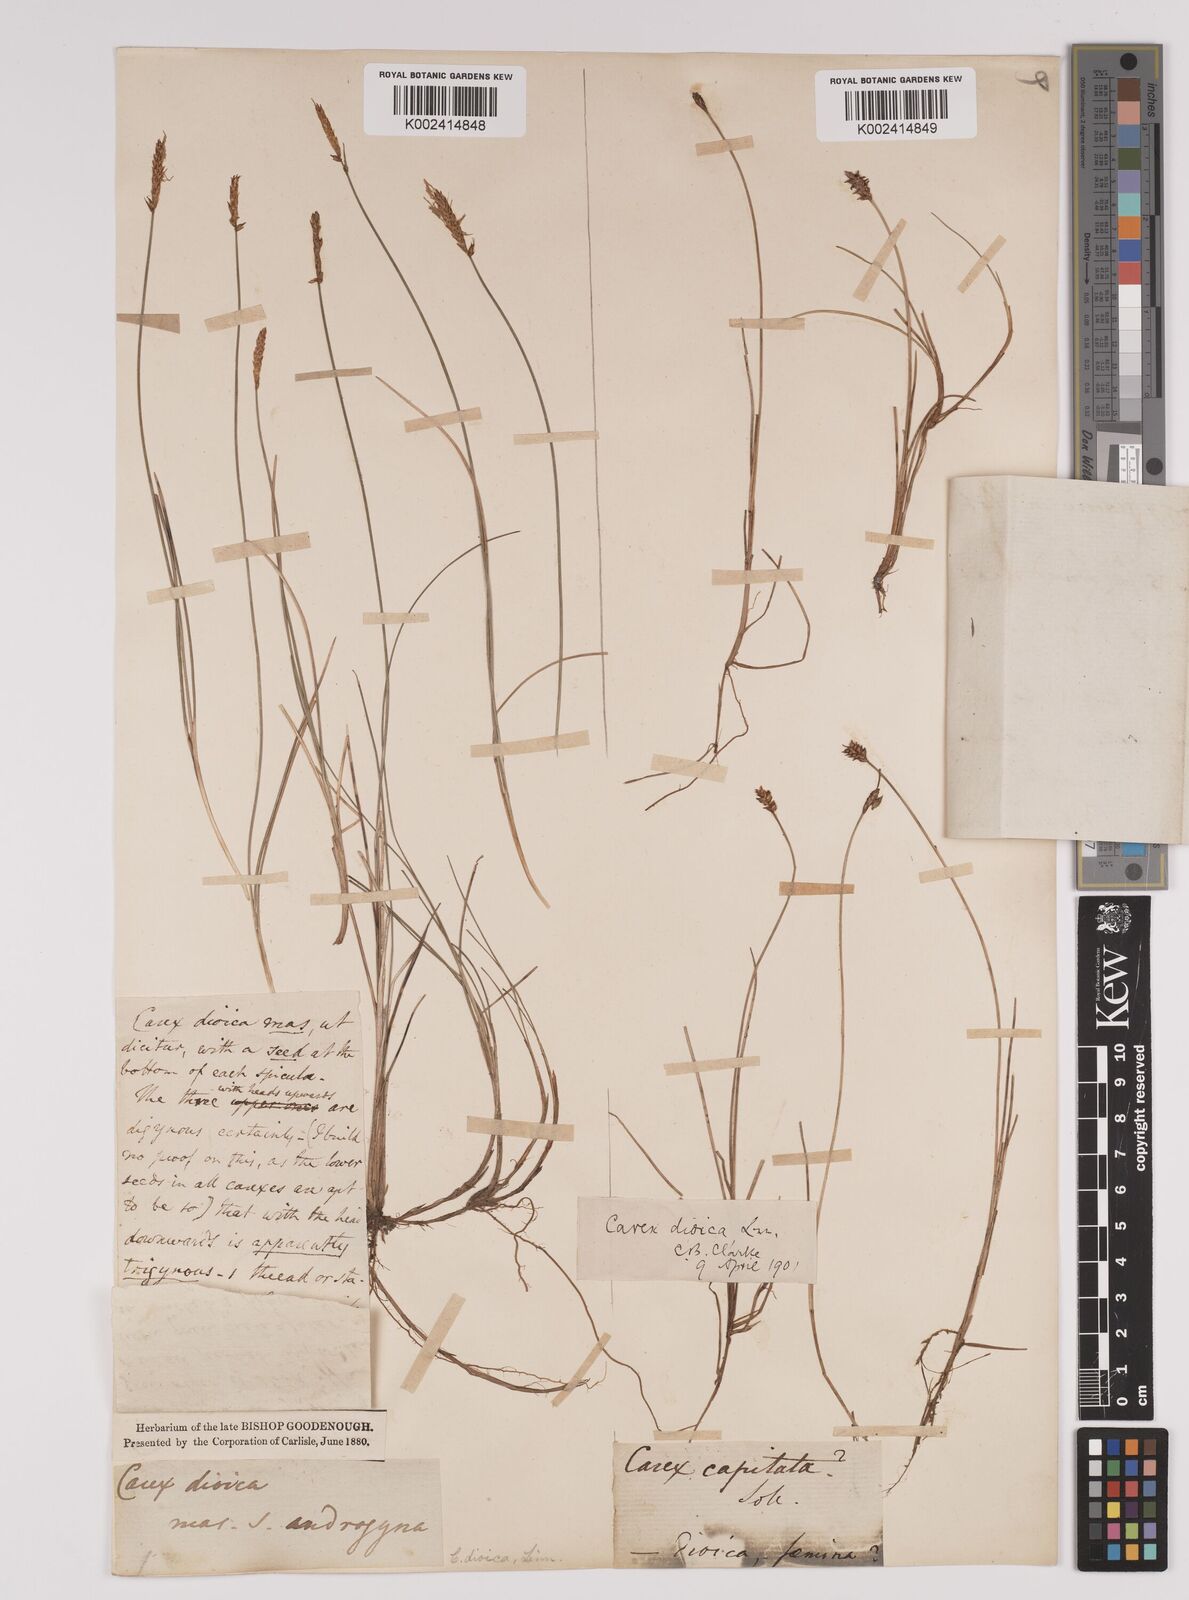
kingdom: Plantae
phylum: Tracheophyta
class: Liliopsida
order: Poales
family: Cyperaceae
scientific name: Cyperaceae
